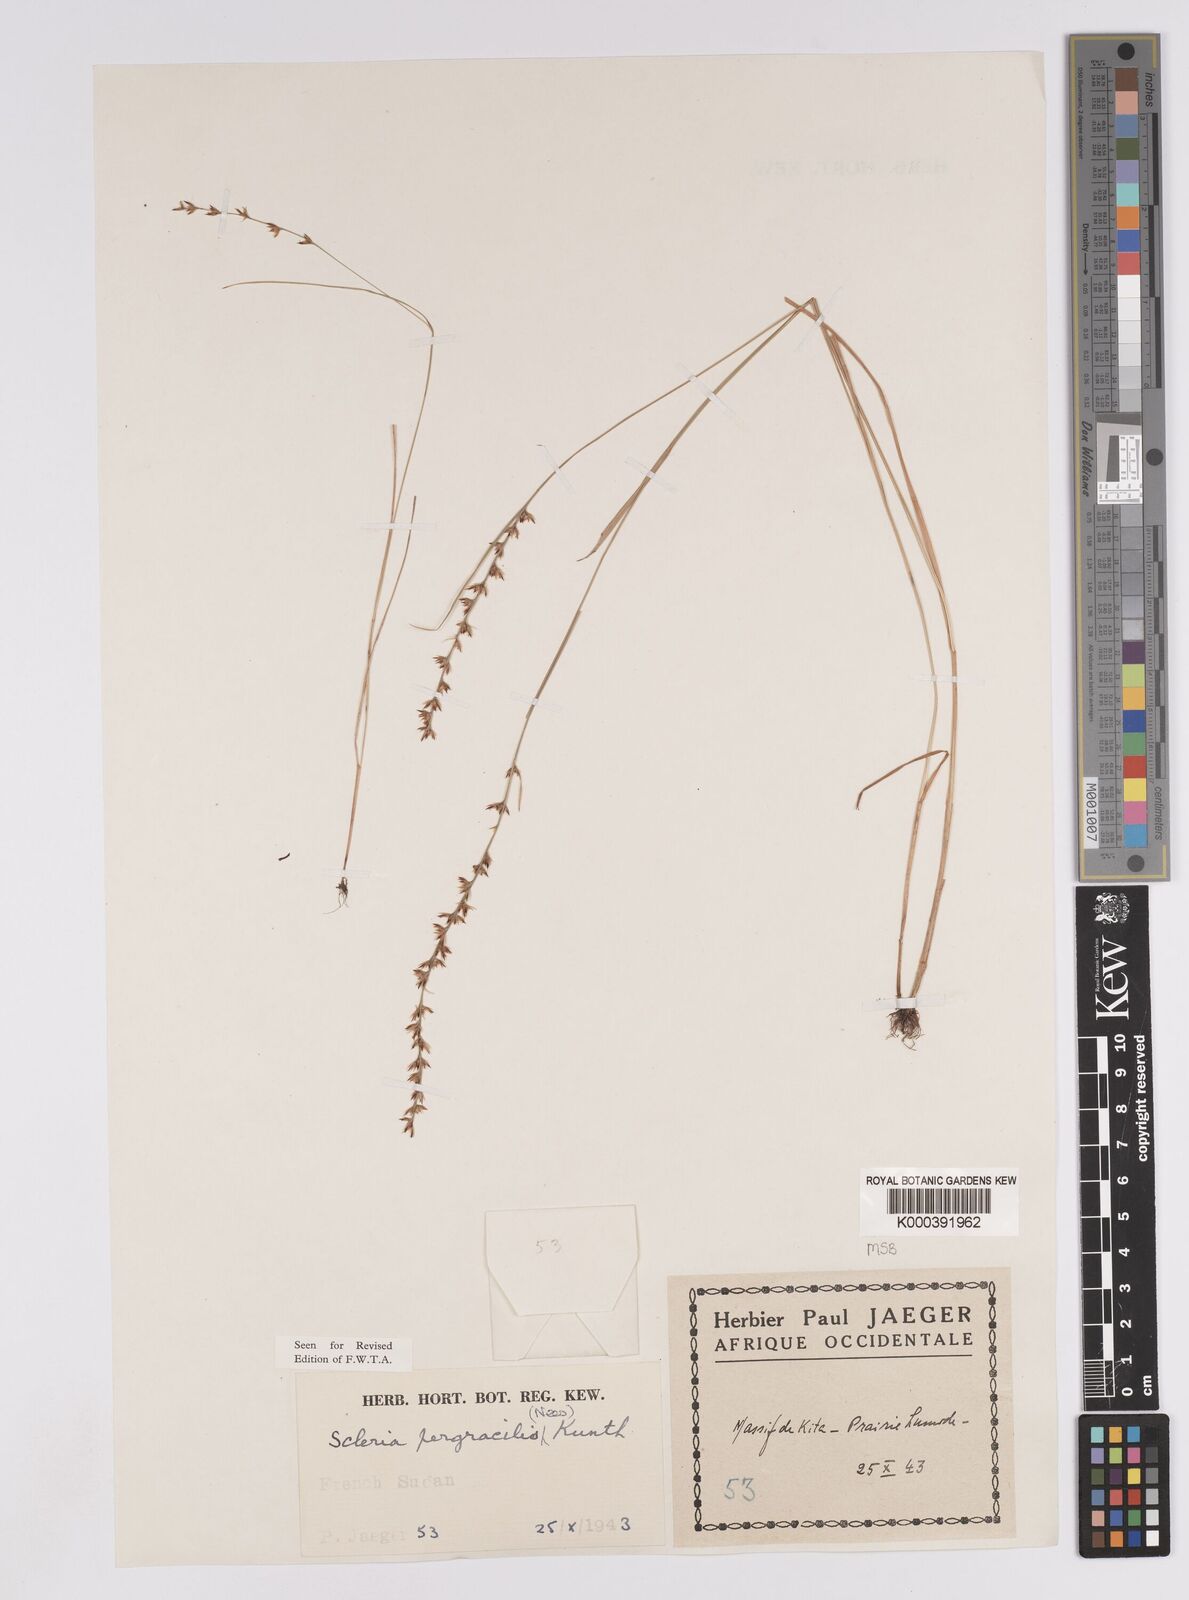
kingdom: Plantae
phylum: Tracheophyta
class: Liliopsida
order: Poales
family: Cyperaceae
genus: Scleria
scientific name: Scleria pergracilis
